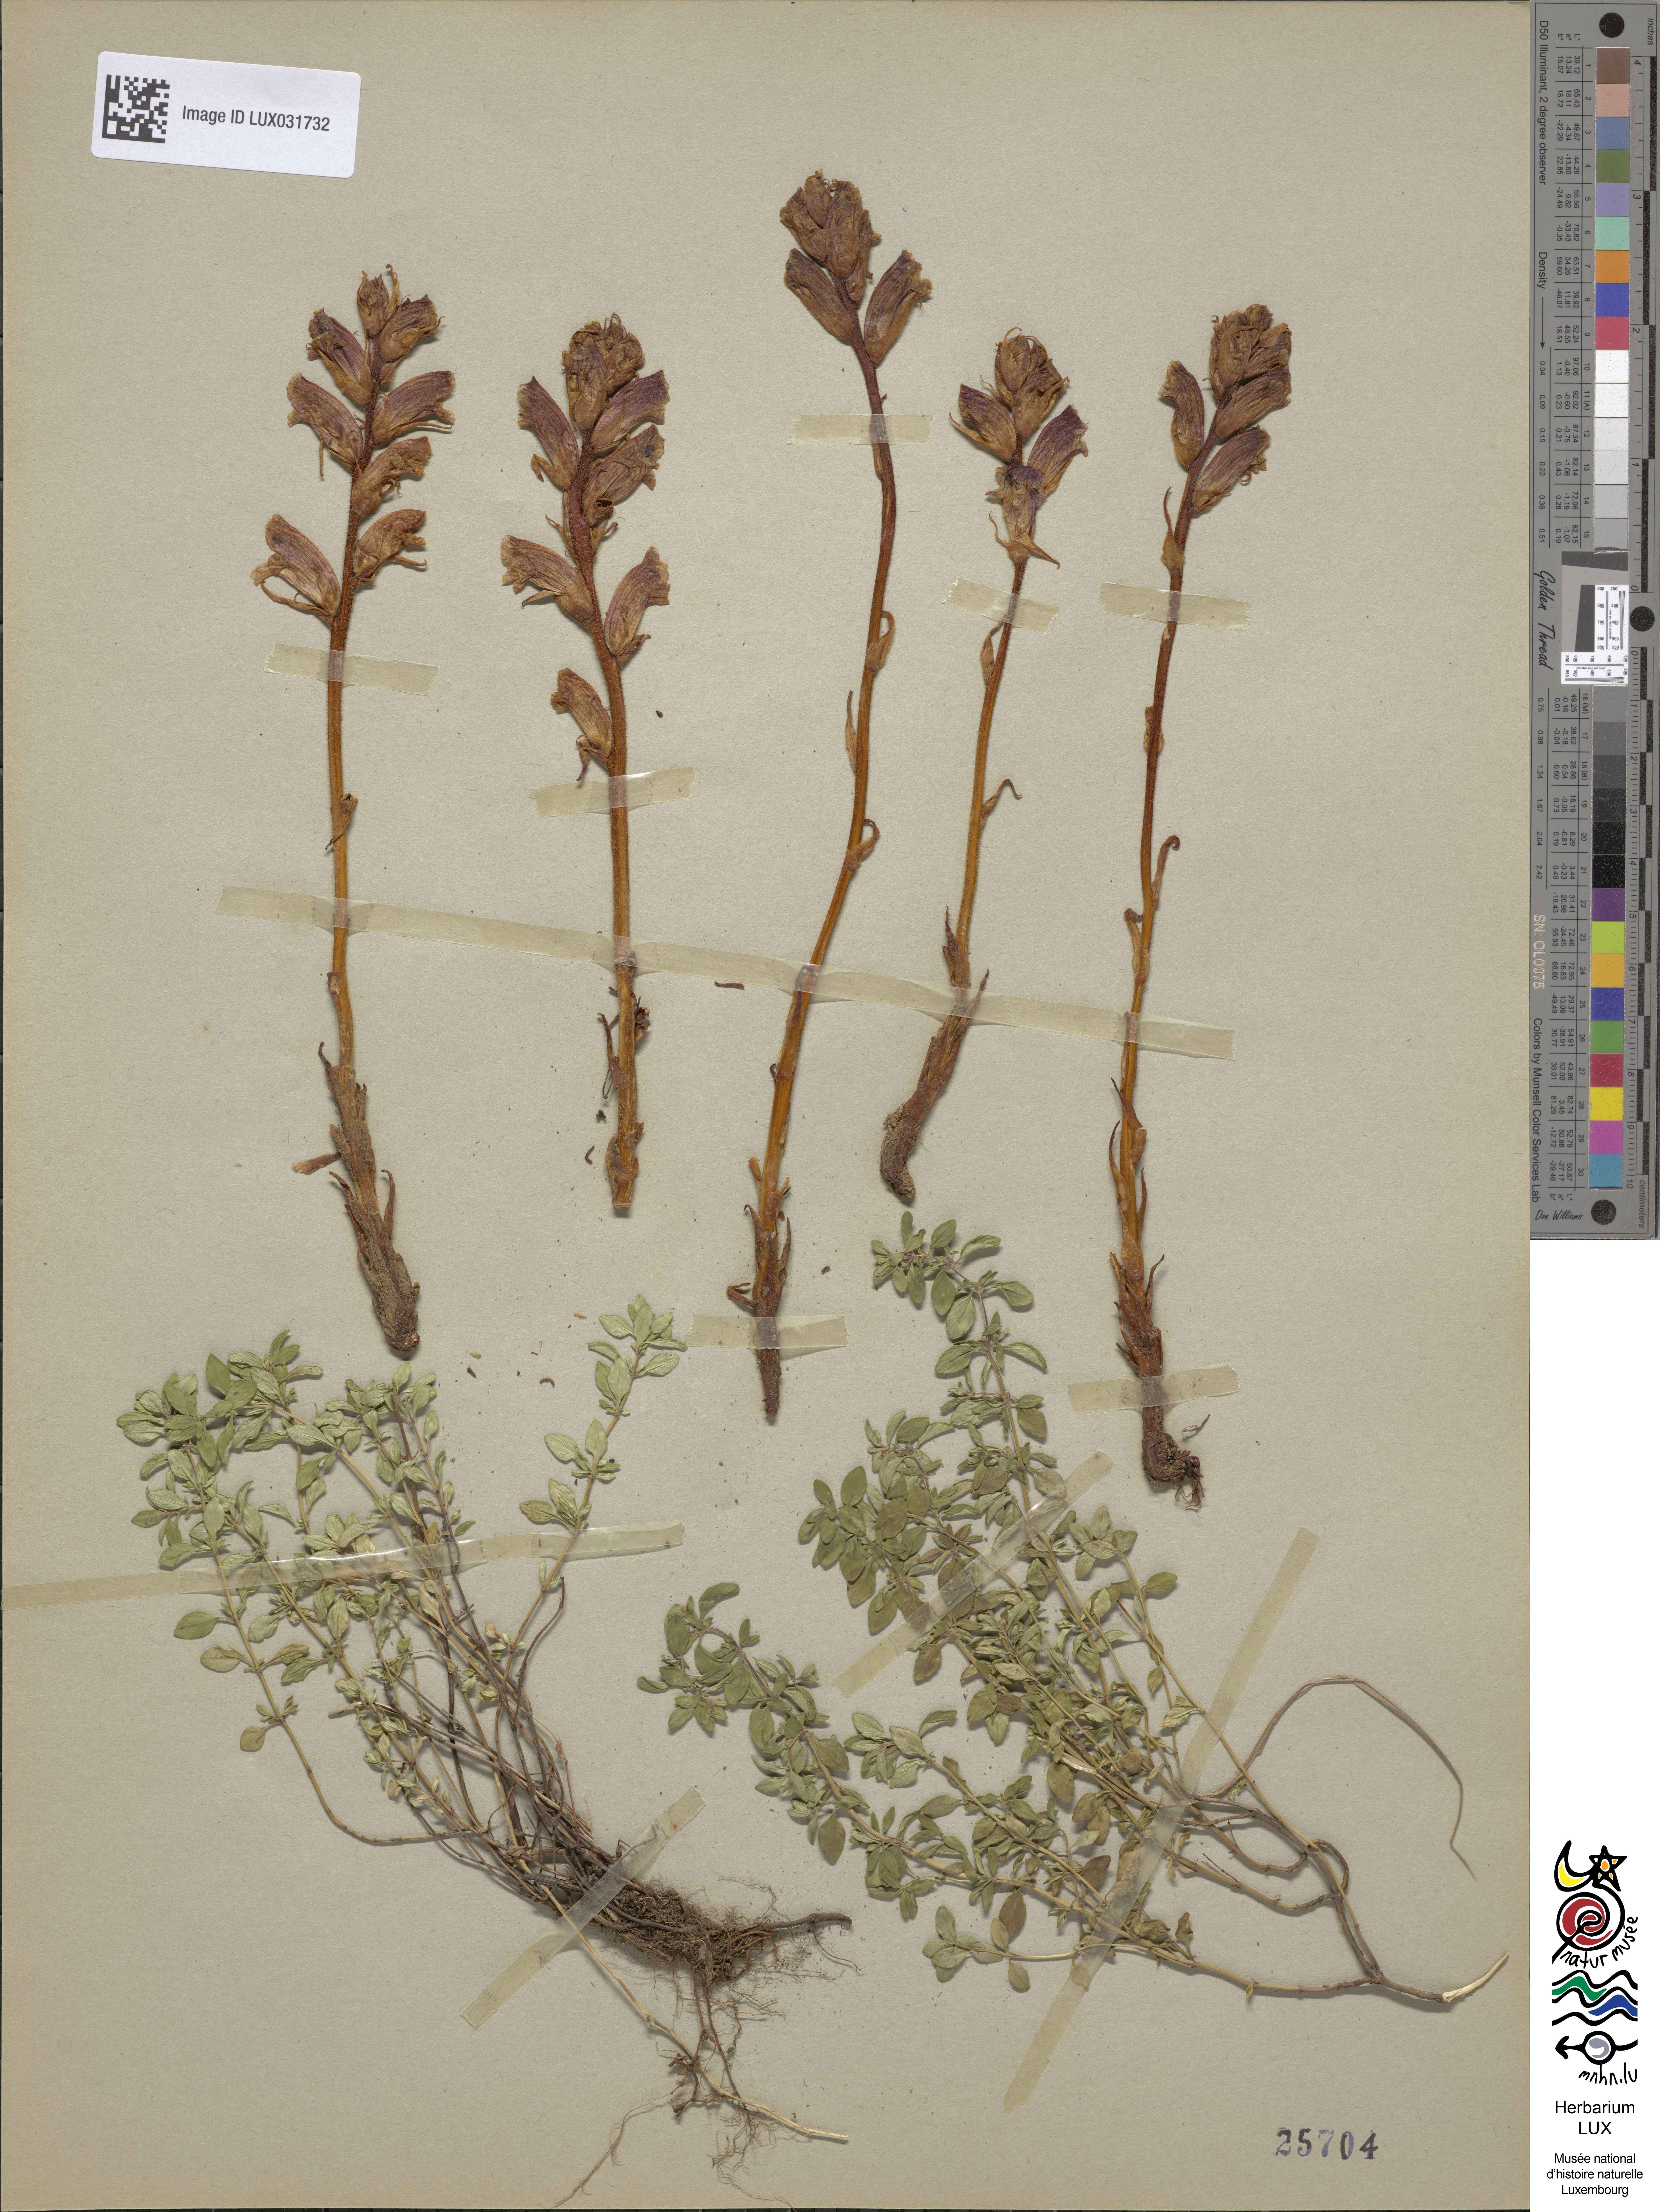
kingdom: Plantae
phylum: Tracheophyta
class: Magnoliopsida
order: Lamiales
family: Orobanchaceae
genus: Orobanche
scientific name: Orobanche alba
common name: Thyme broomrape
